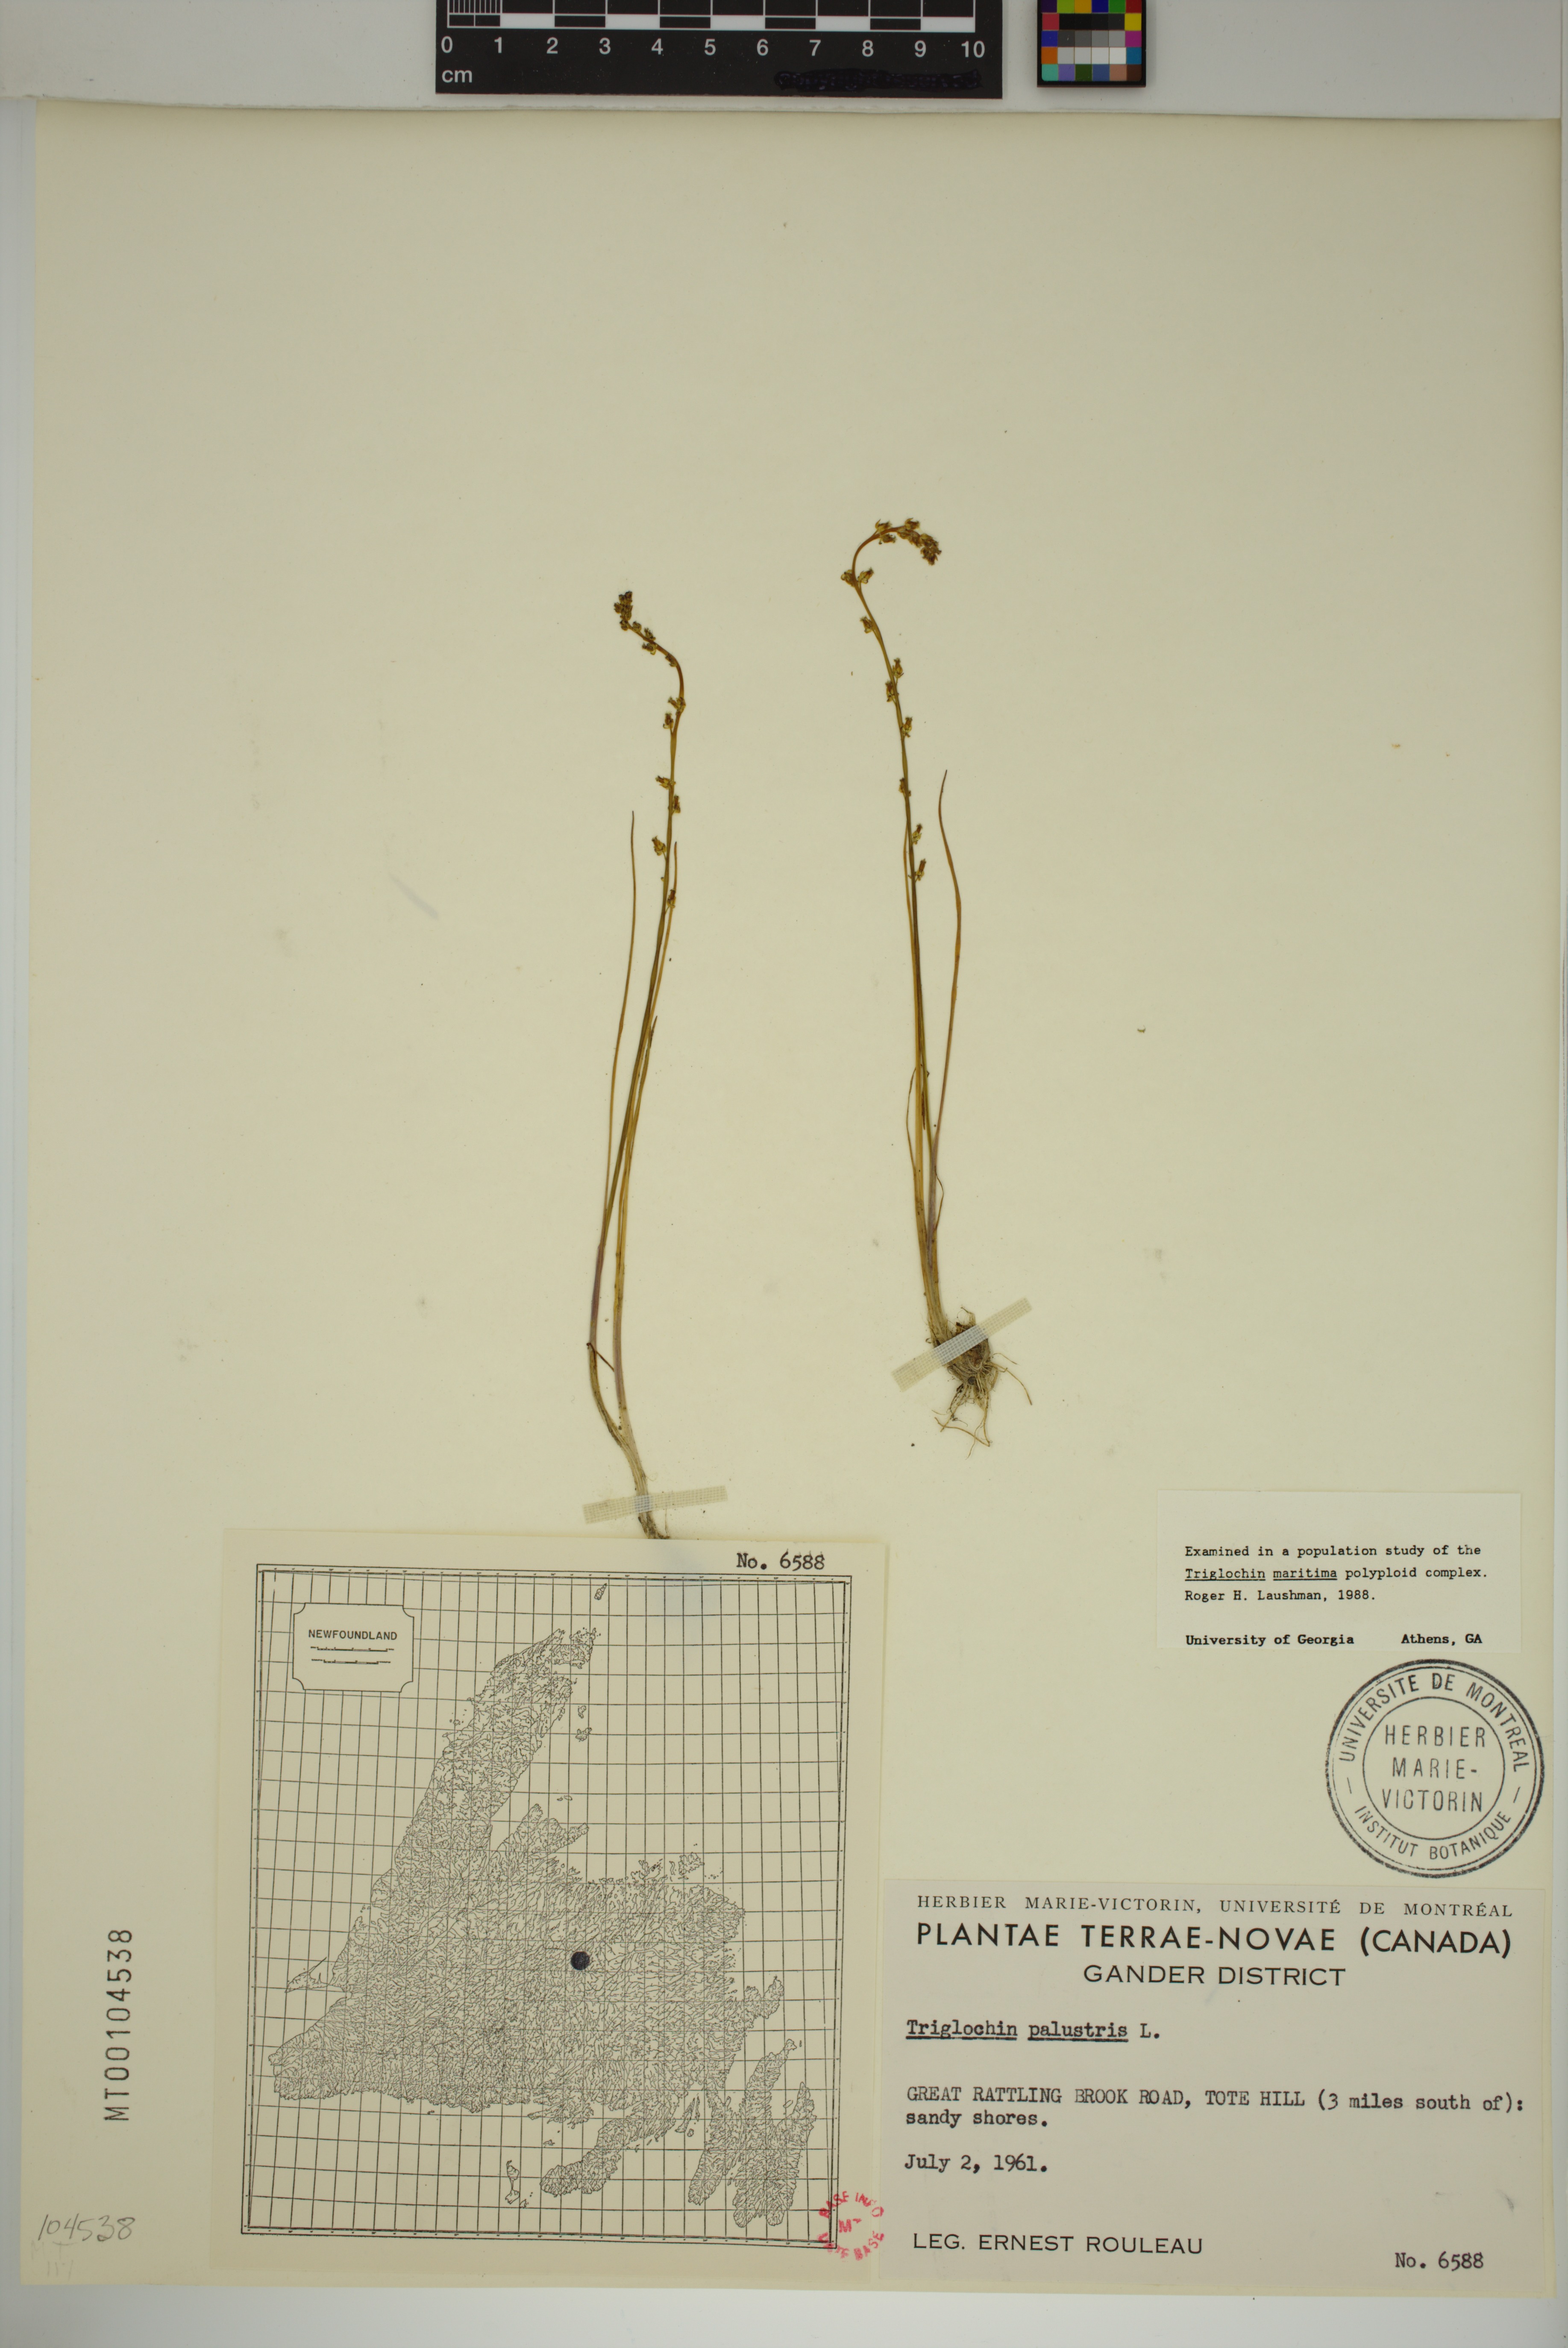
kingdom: Plantae
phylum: Tracheophyta
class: Liliopsida
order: Alismatales
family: Juncaginaceae
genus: Triglochin
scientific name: Triglochin palustris
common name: Marsh arrowgrass
